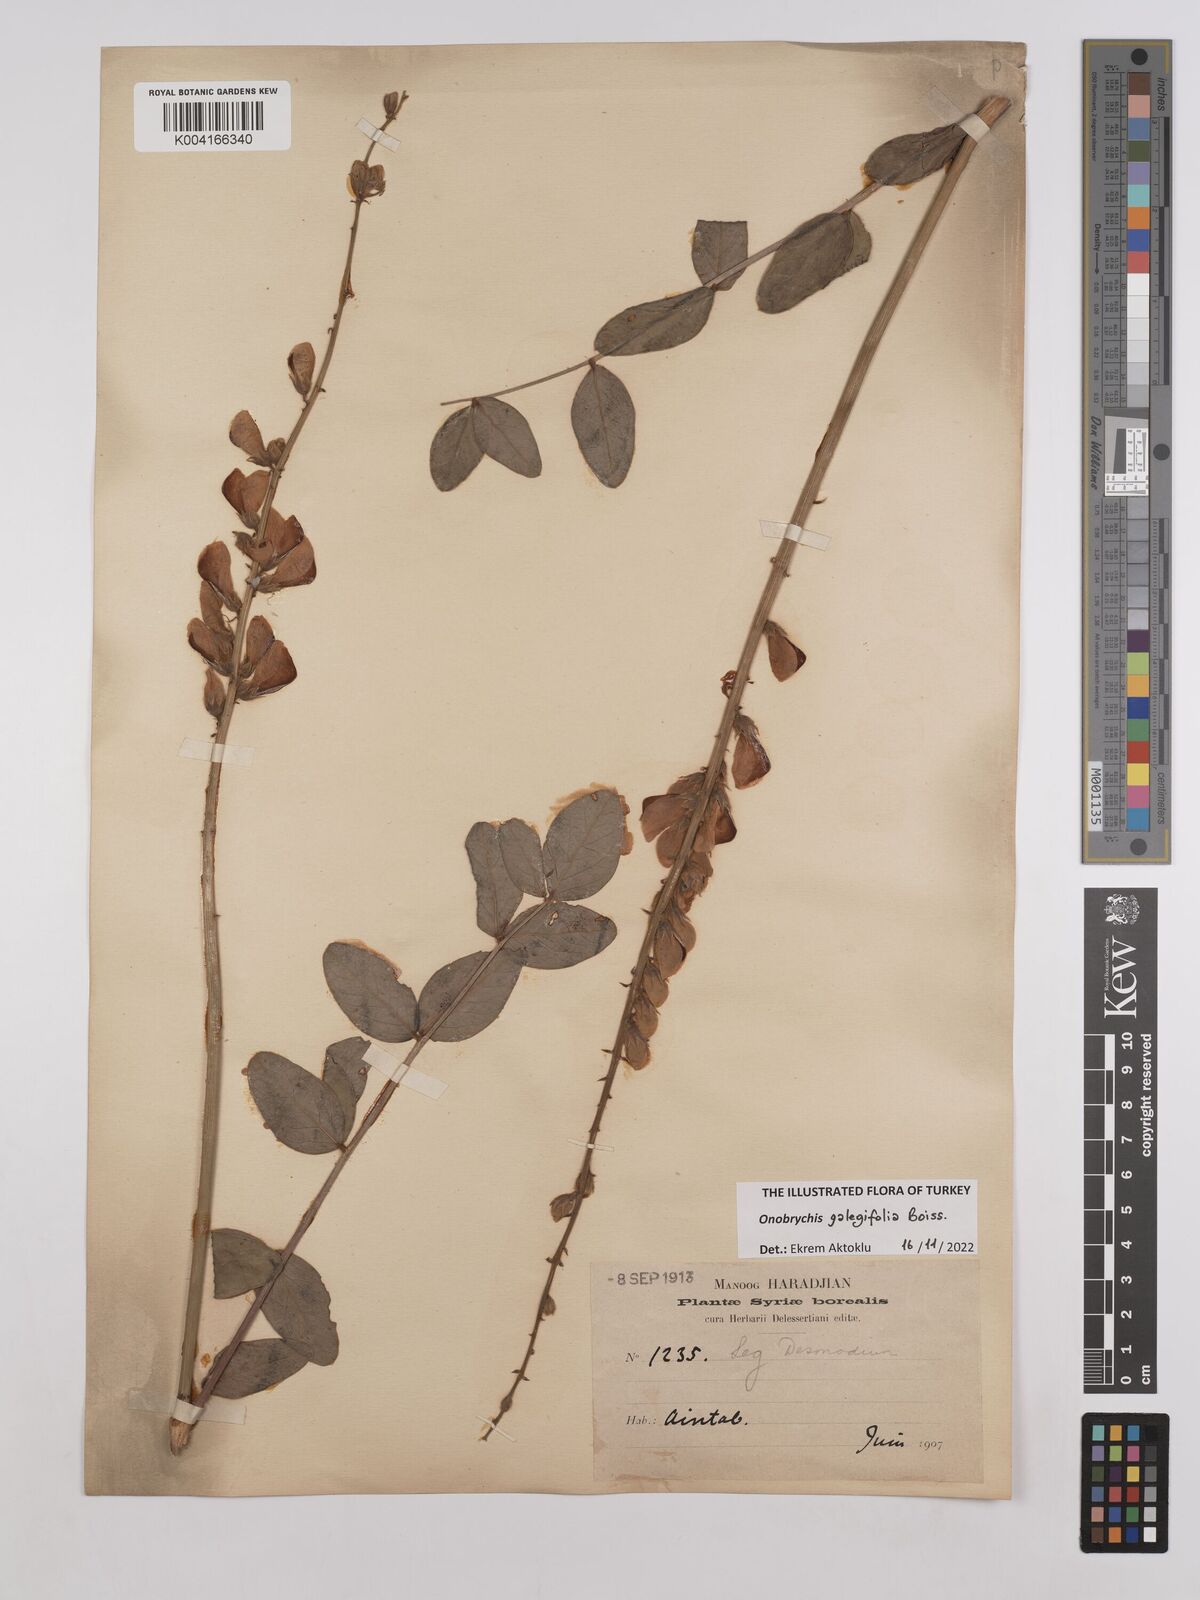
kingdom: Plantae
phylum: Tracheophyta
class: Magnoliopsida
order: Fabales
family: Fabaceae
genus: Onobrychis
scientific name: Onobrychis galegifolia
